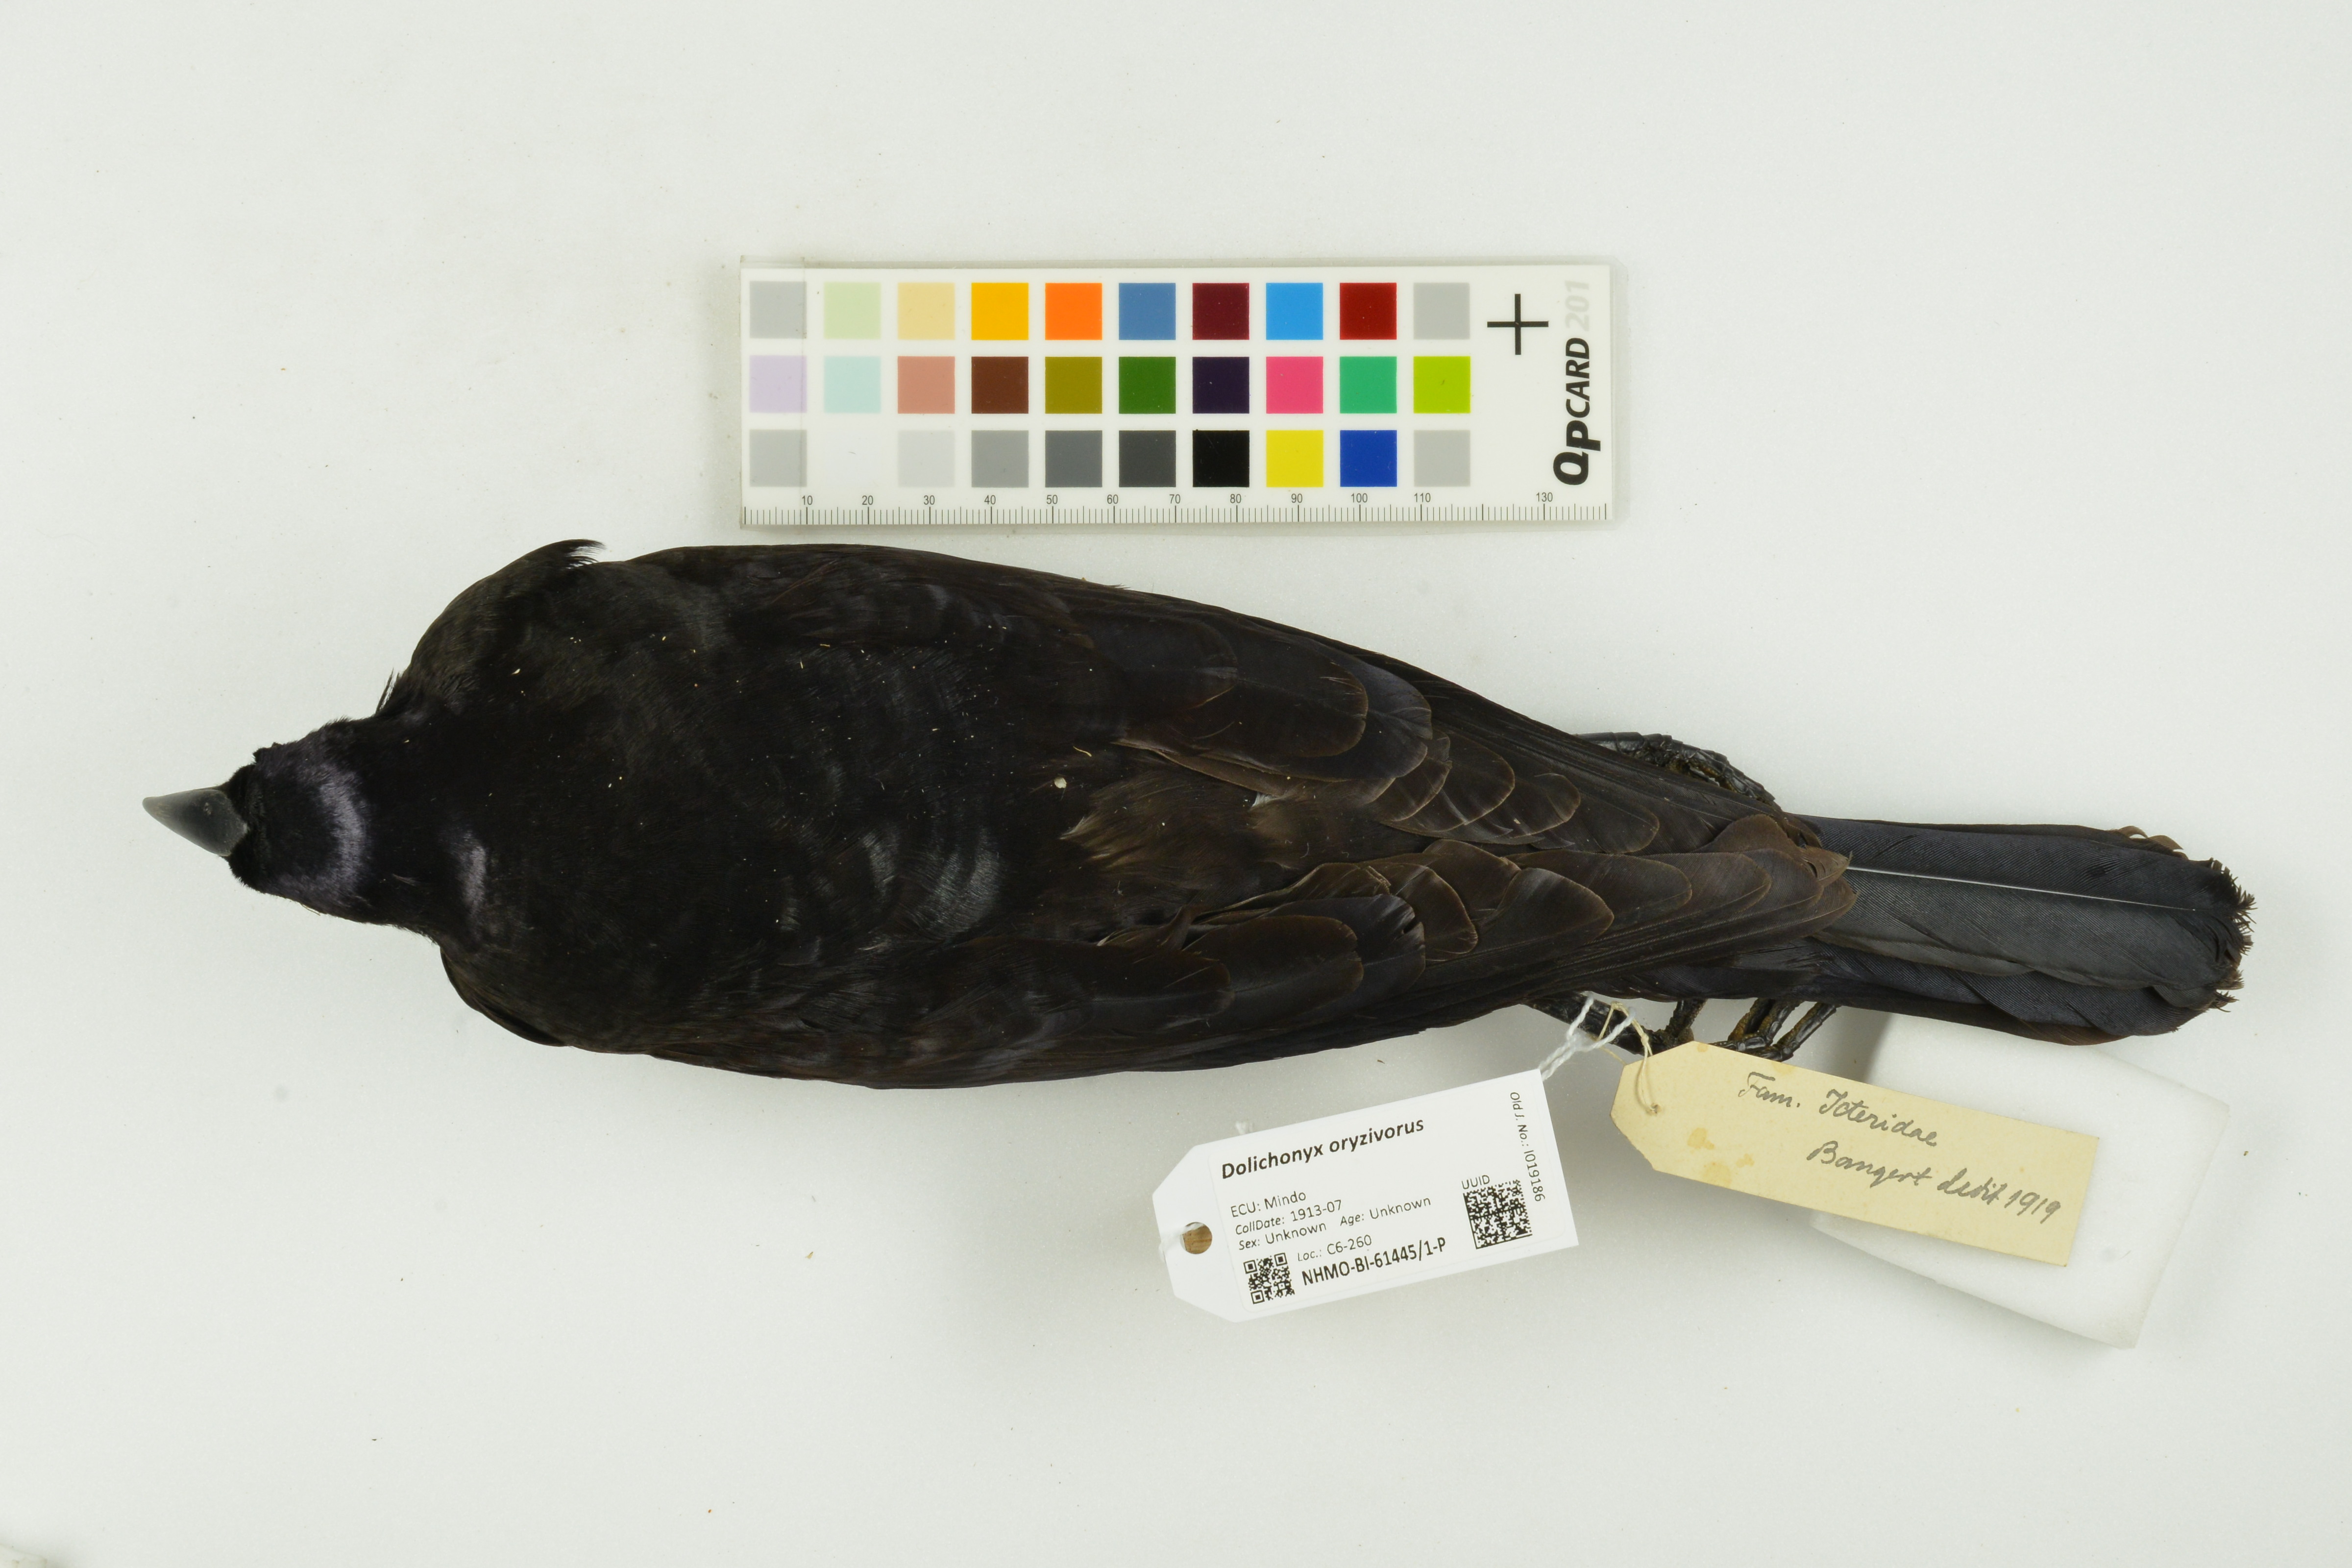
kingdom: Animalia
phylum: Chordata
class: Aves
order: Passeriformes
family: Icteridae
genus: Dolichonyx
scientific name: Dolichonyx oryzivorus
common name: Bobolink
